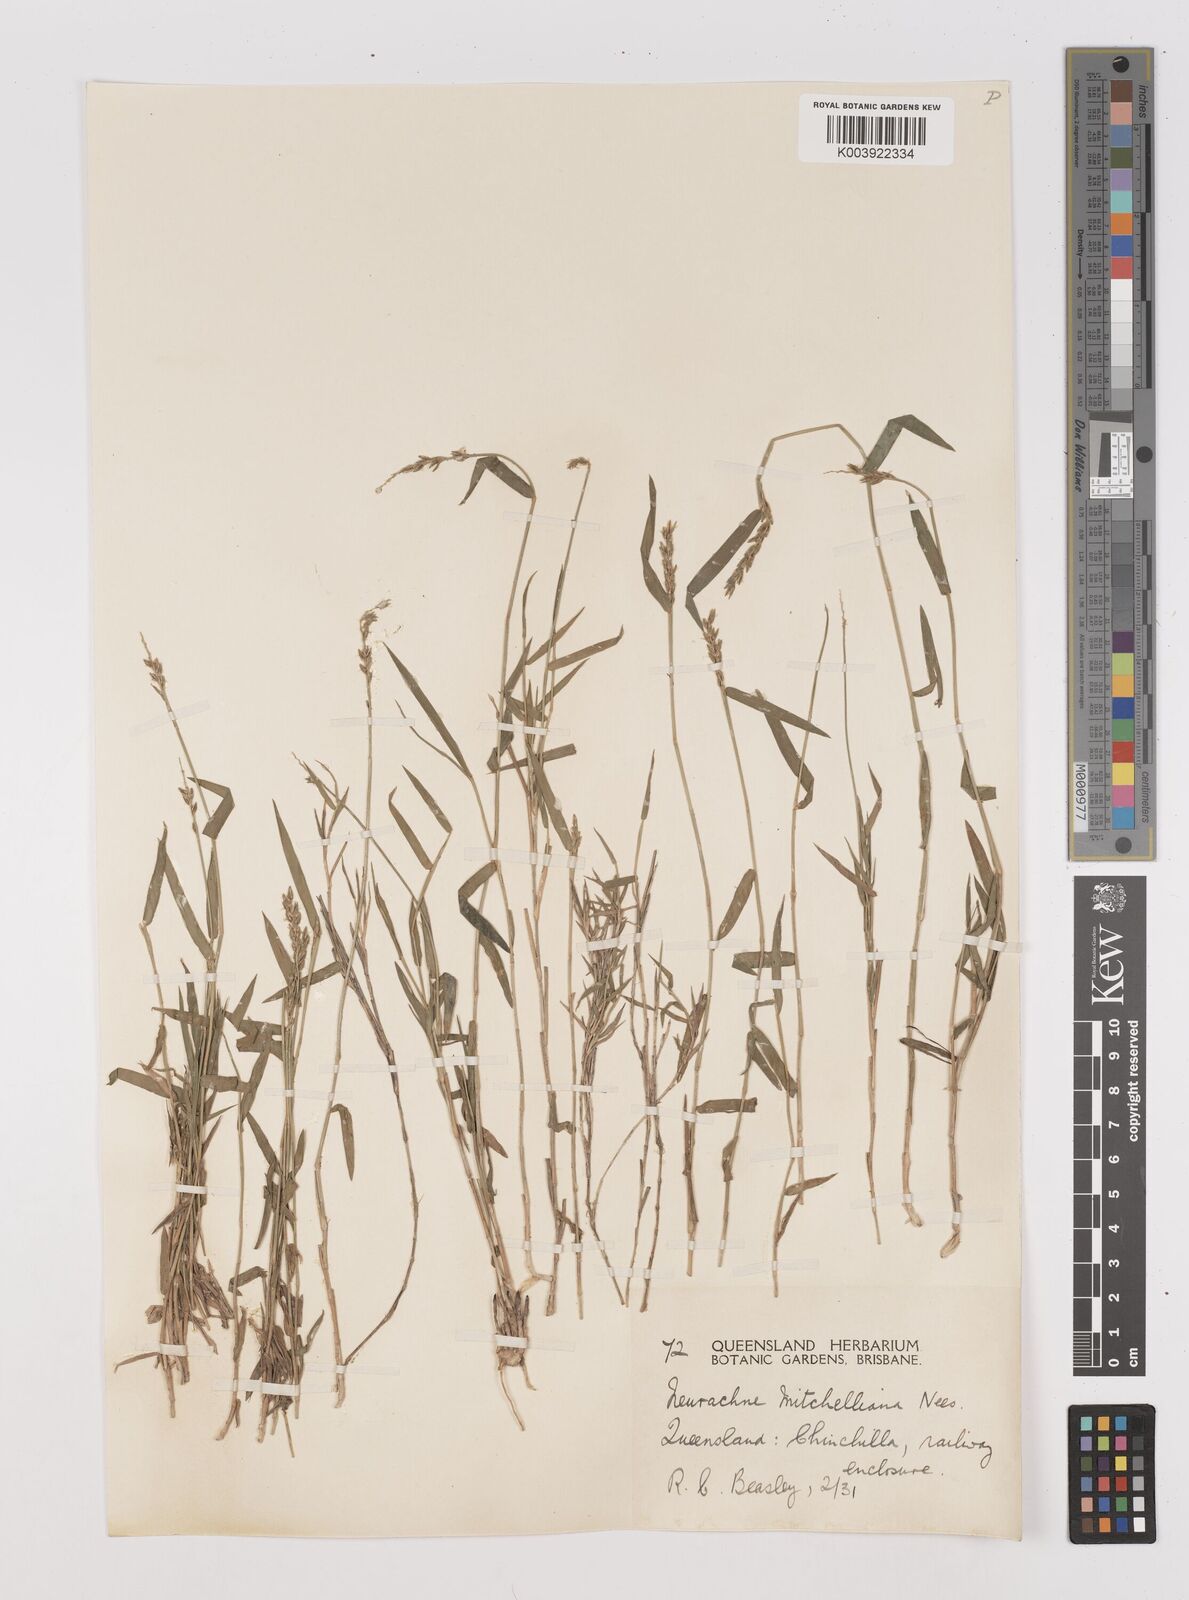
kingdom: Plantae
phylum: Tracheophyta
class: Liliopsida
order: Poales
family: Poaceae
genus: Thyridolepis
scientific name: Thyridolepis mitchelliana
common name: Rock tassel grass
